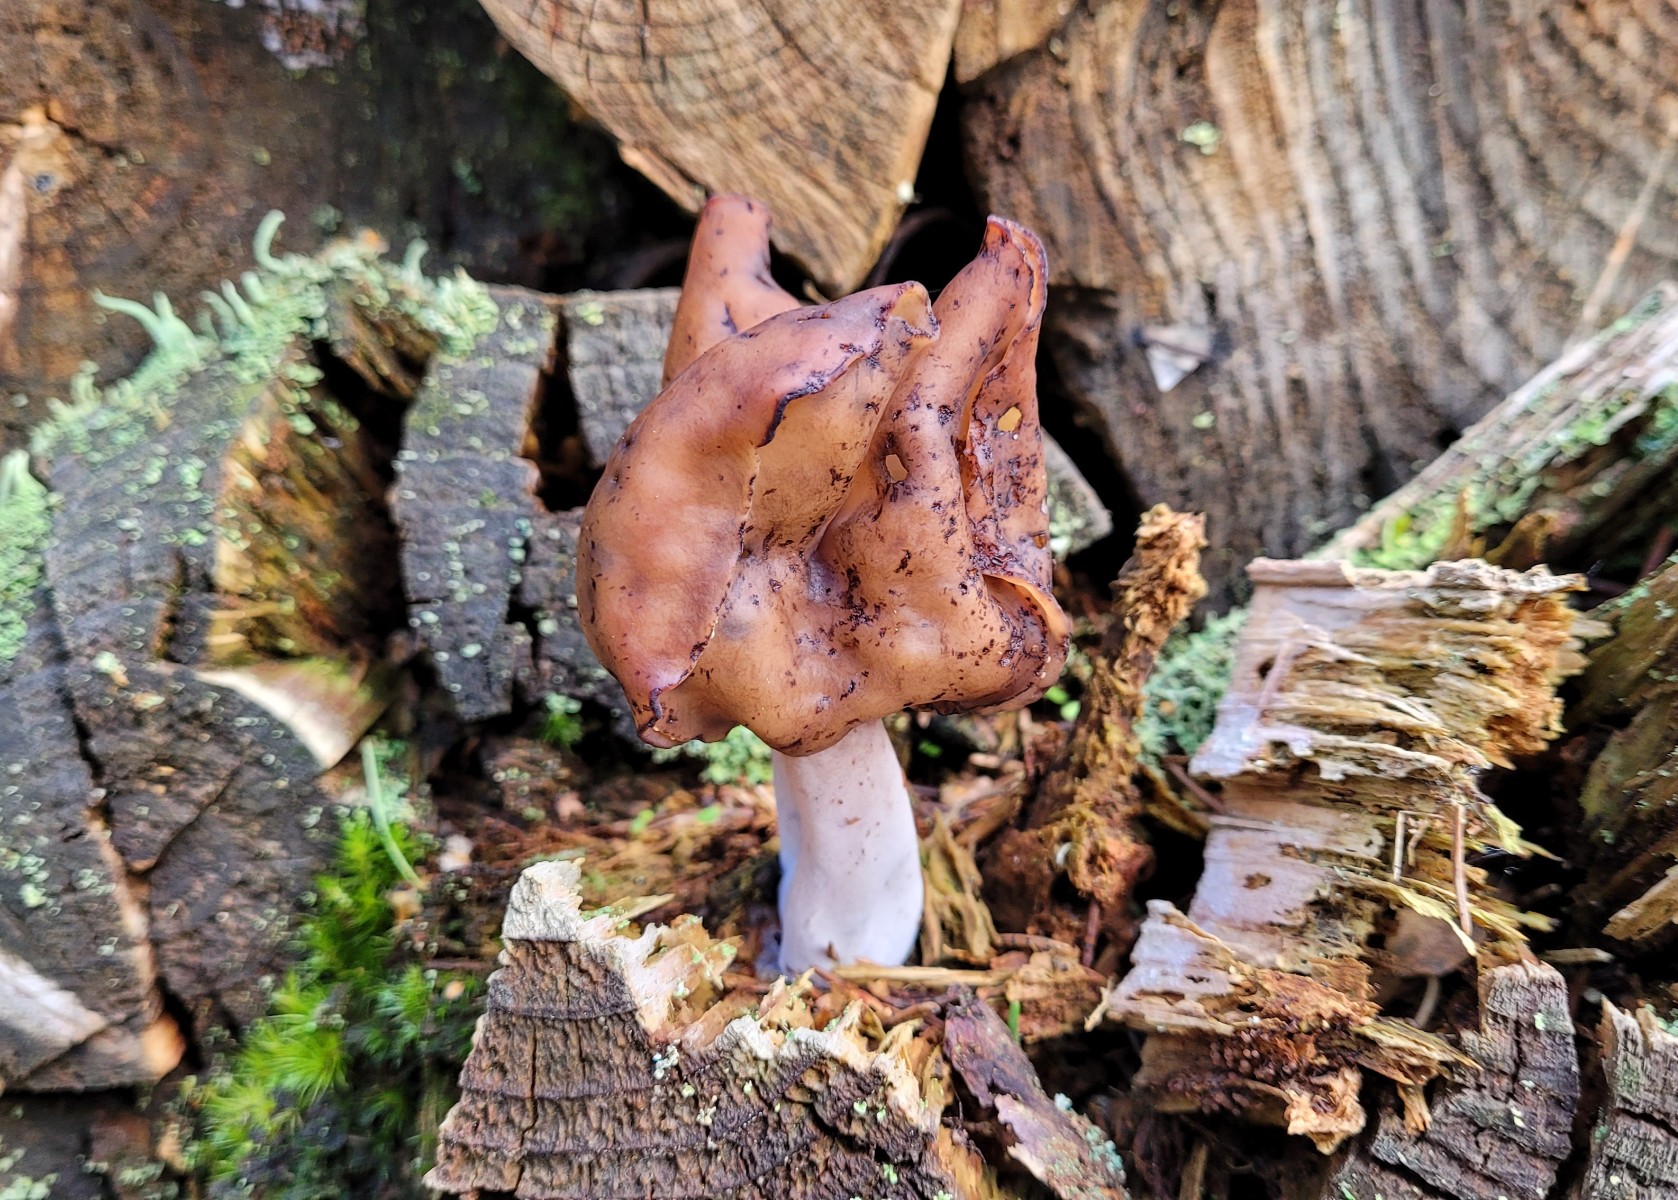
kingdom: Fungi
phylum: Ascomycota
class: Pezizomycetes
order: Pezizales
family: Discinaceae
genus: Gyromitra
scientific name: Gyromitra infula
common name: bispehue-stenmorkel
